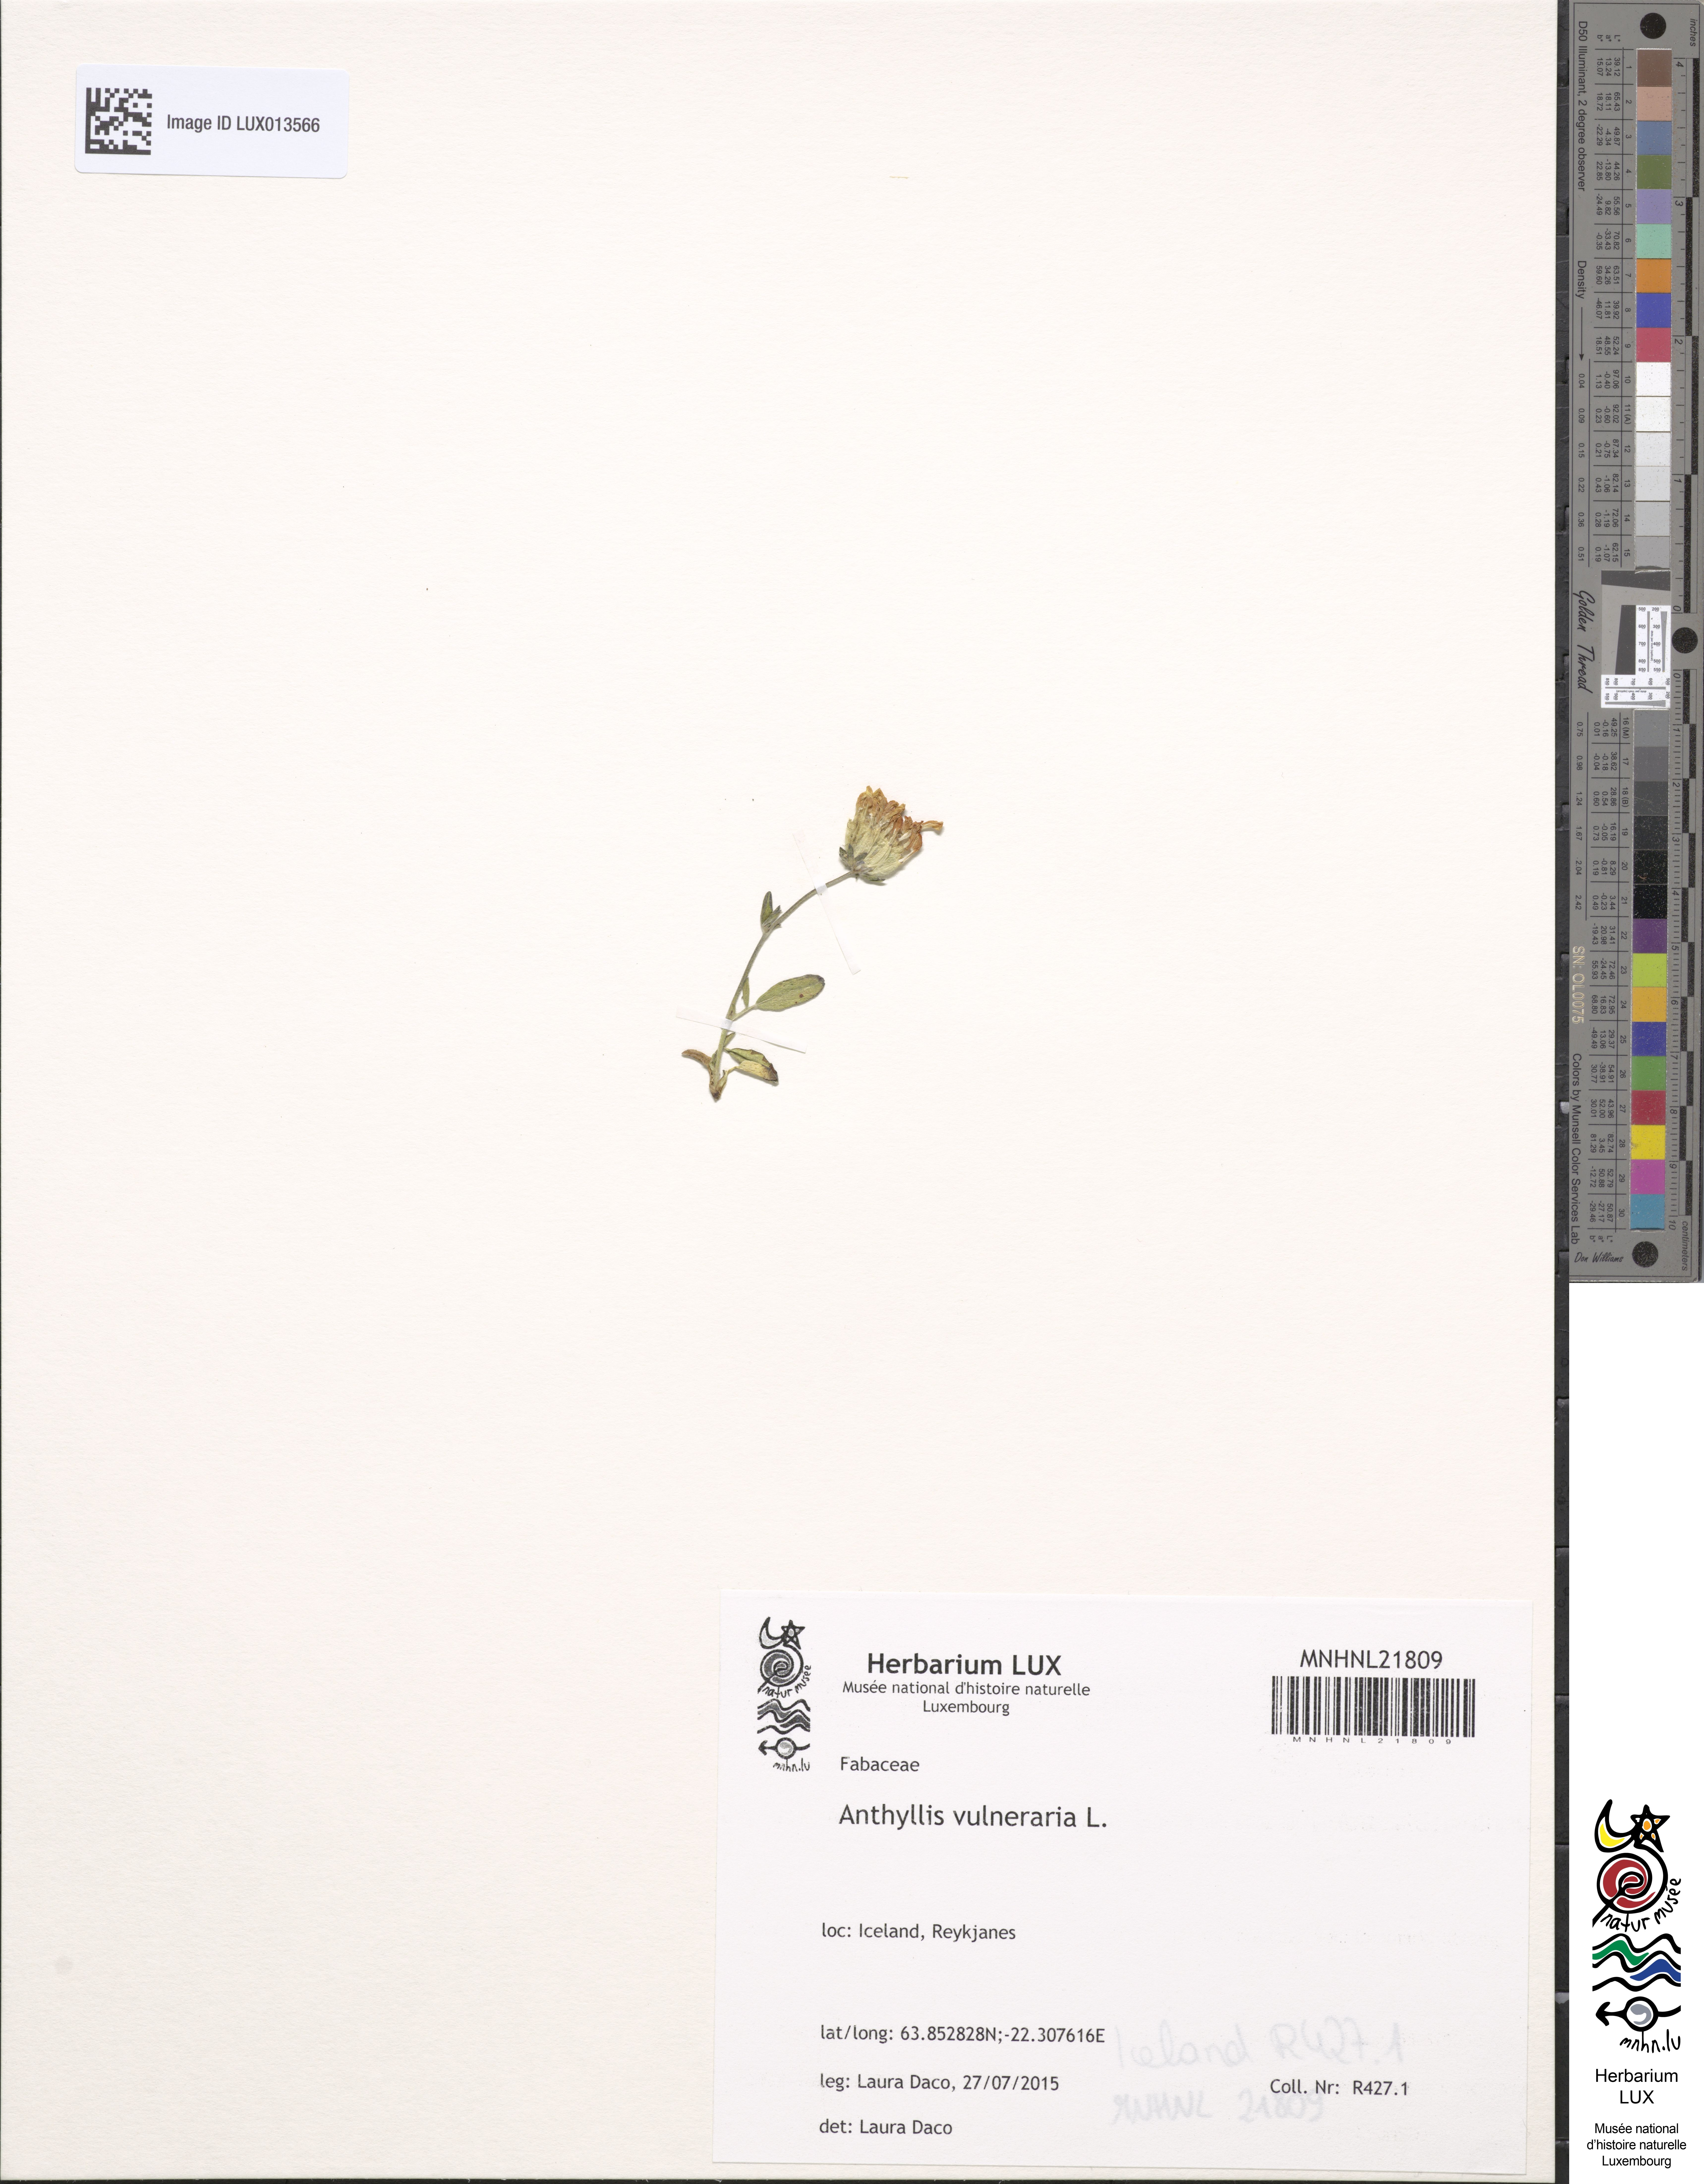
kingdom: Plantae
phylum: Tracheophyta
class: Magnoliopsida
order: Fabales
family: Fabaceae
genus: Anthyllis
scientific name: Anthyllis vulneraria
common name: Kidney vetch
